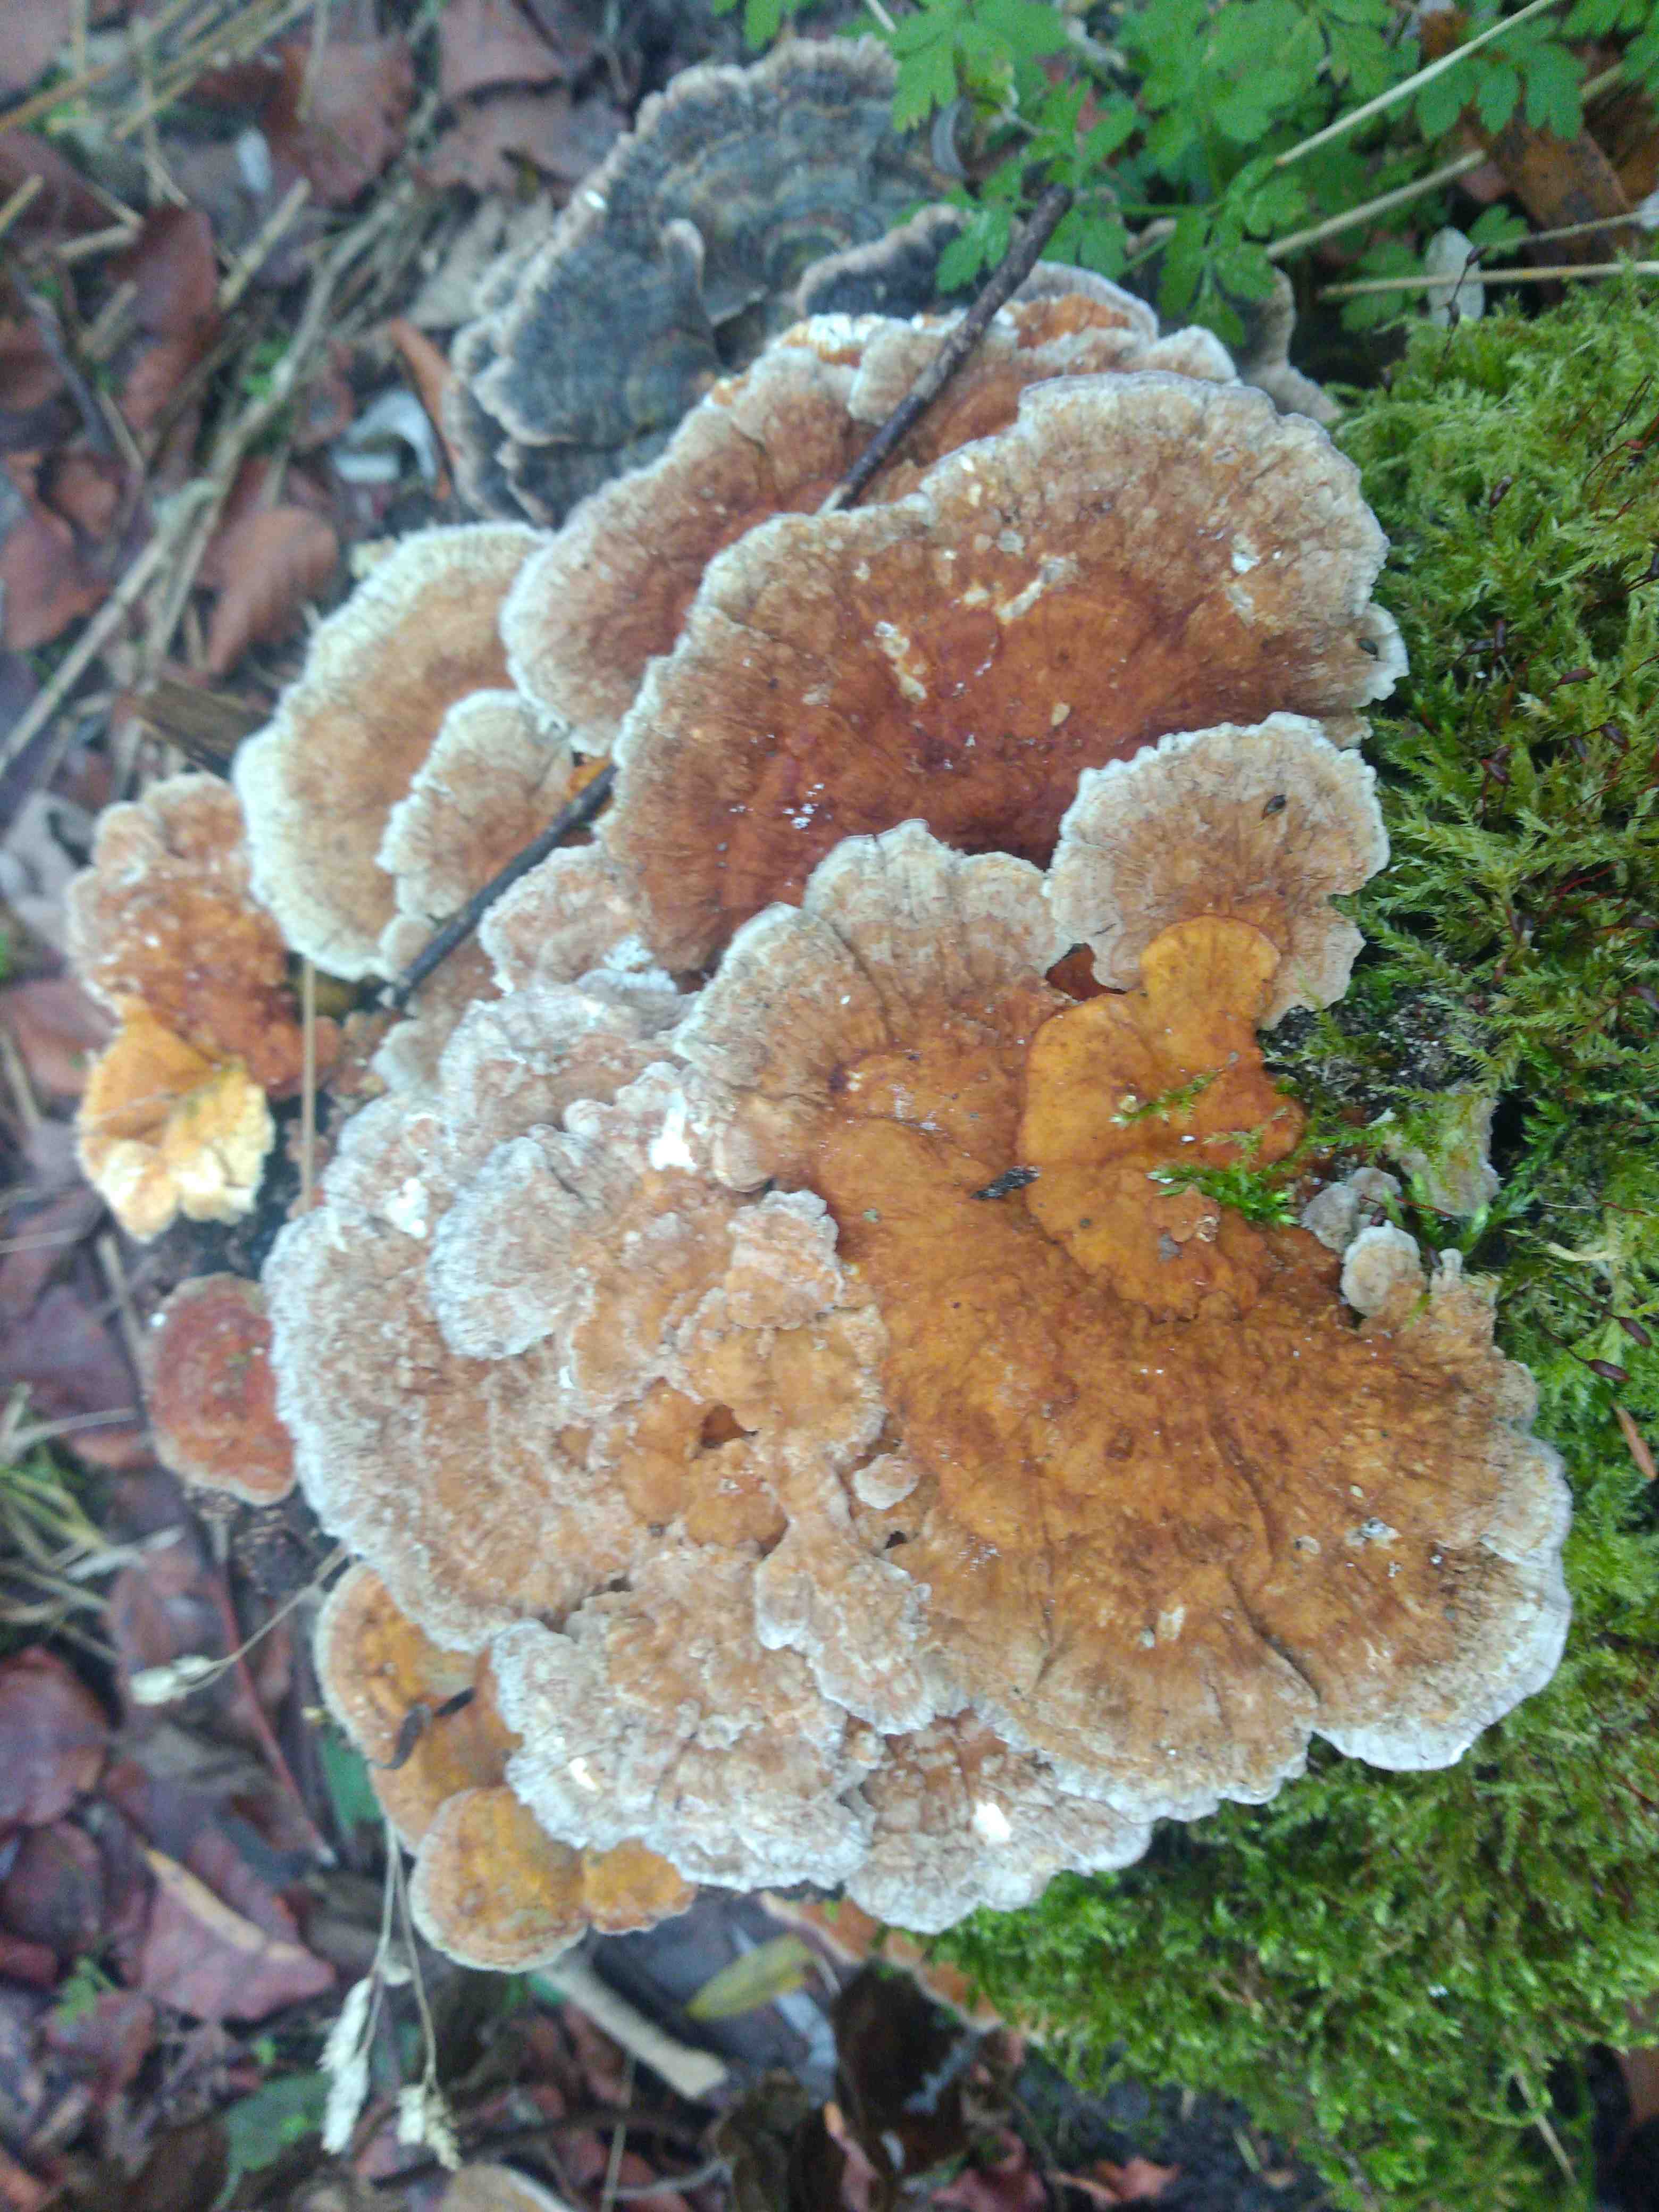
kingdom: Fungi
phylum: Basidiomycota
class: Agaricomycetes
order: Polyporales
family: Polyporaceae
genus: Trametes
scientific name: Trametes ochracea
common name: bæltet læderporesvamp
